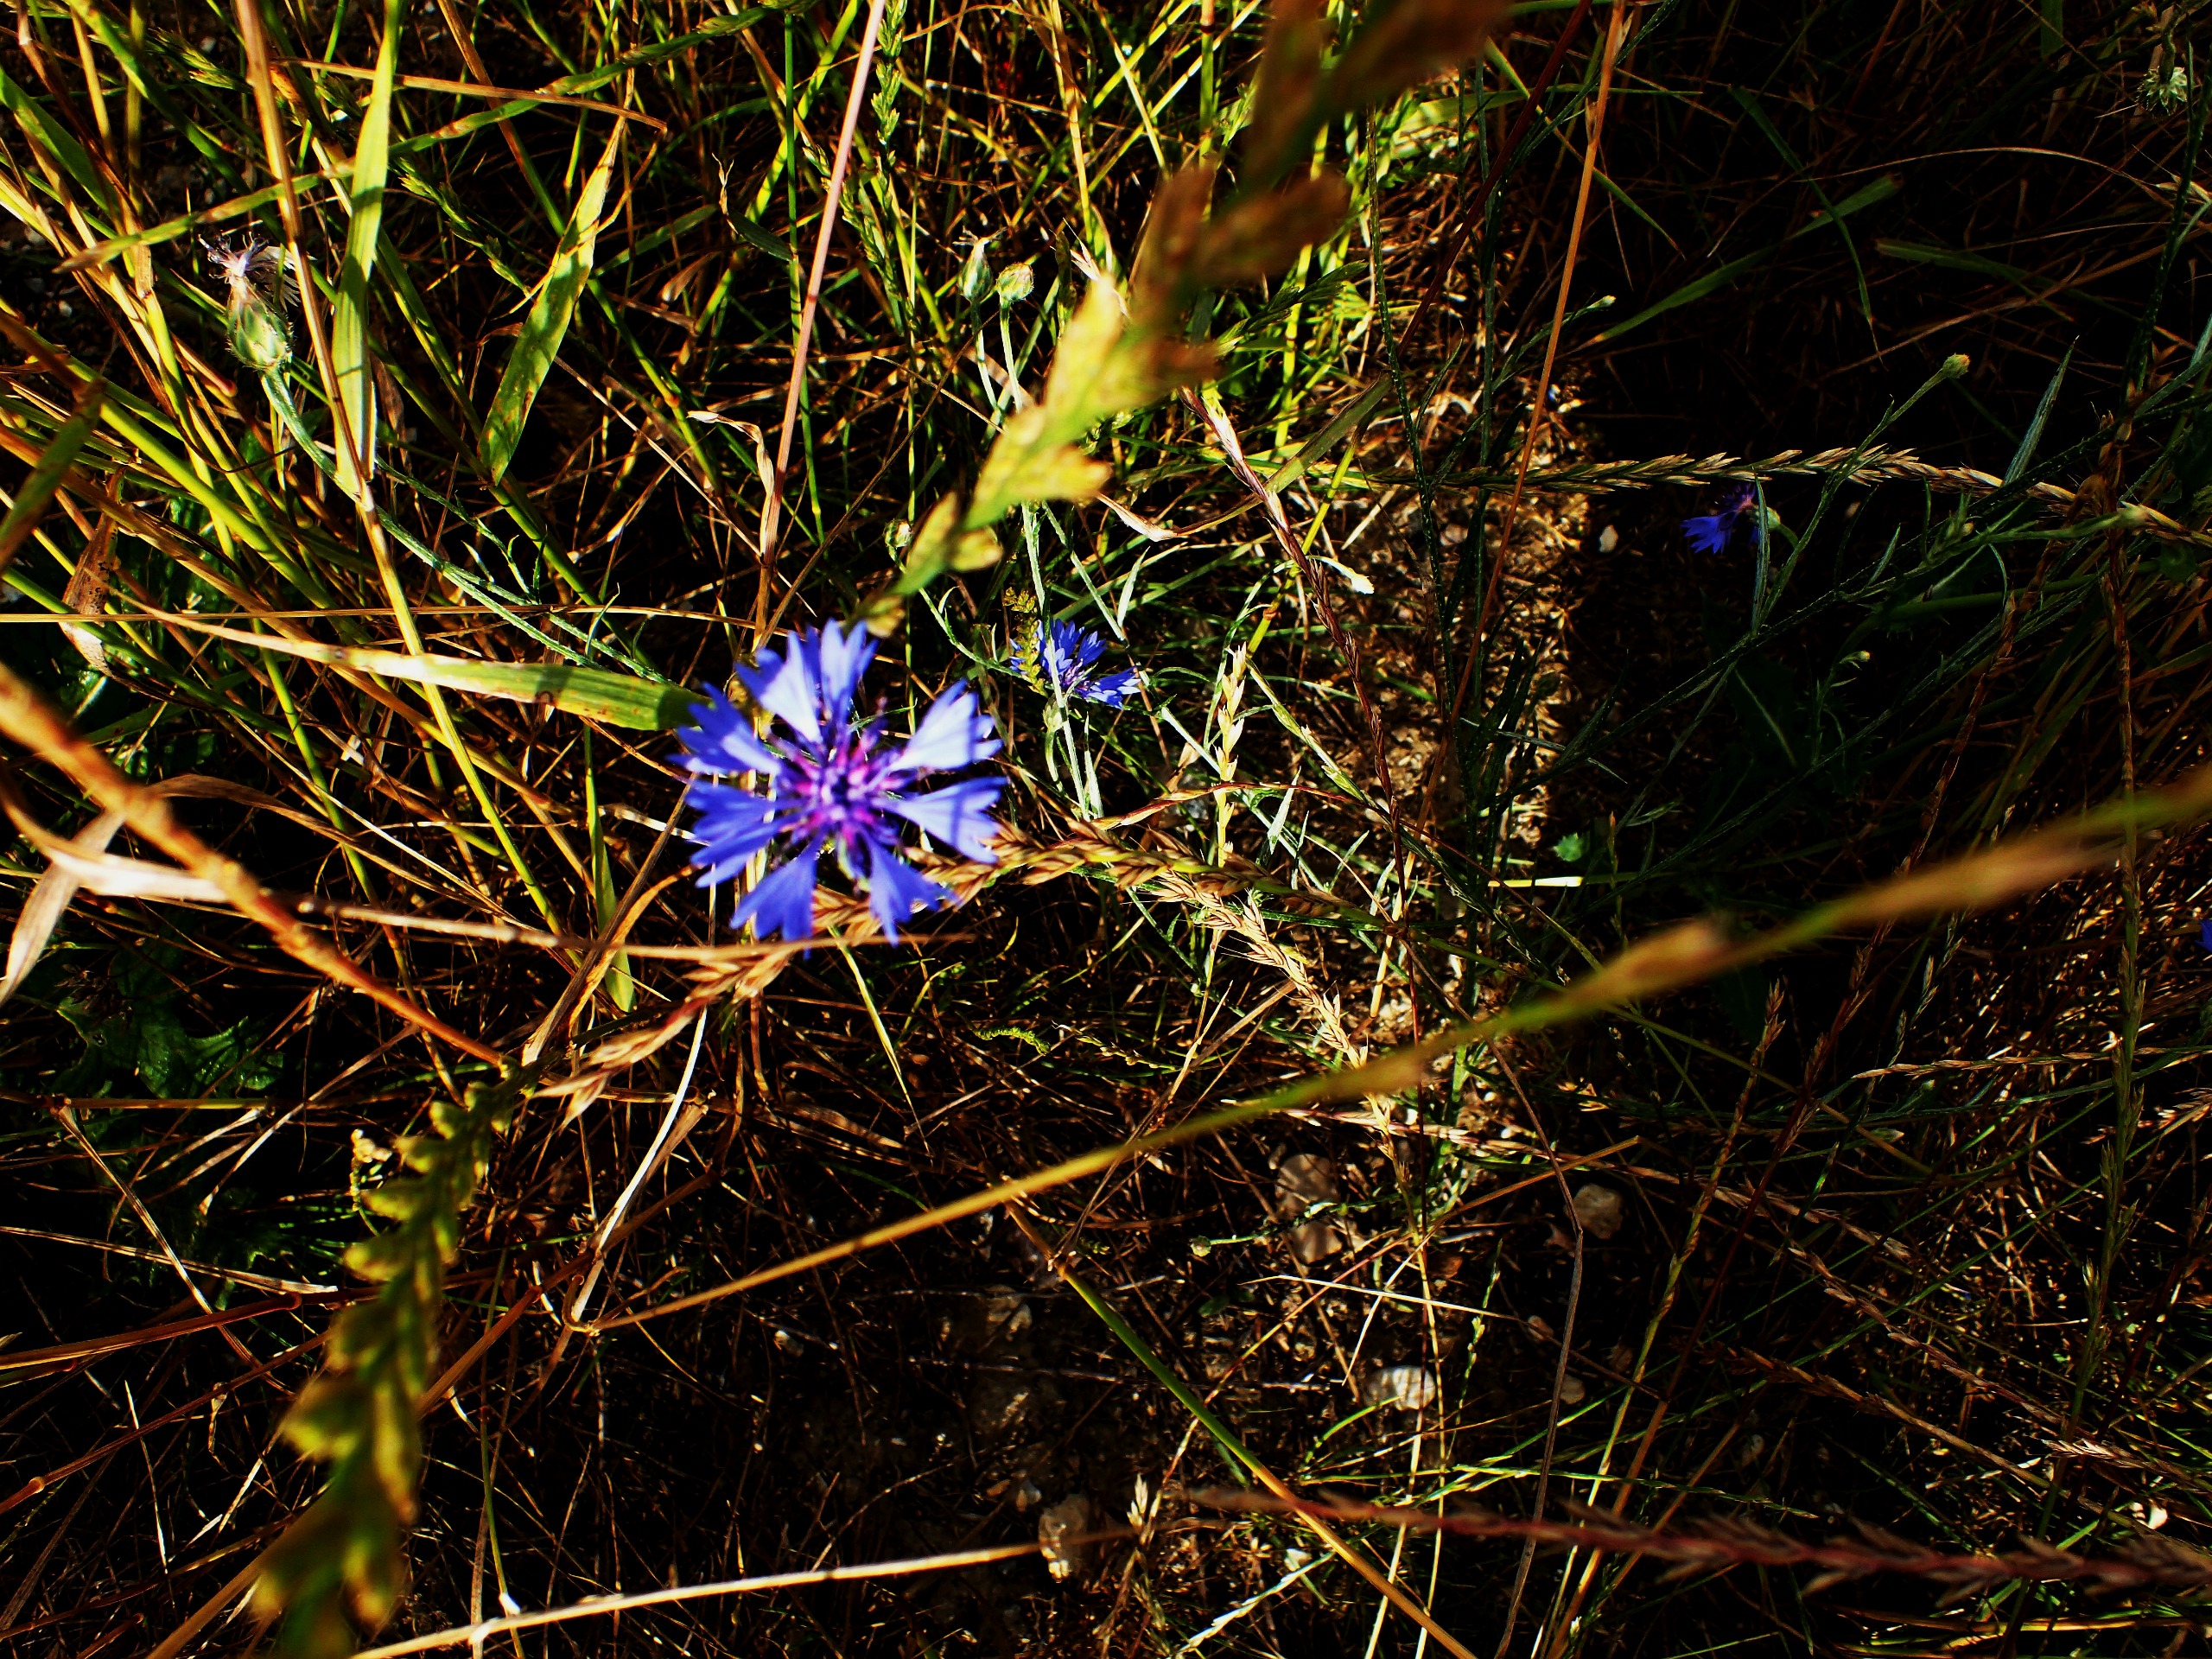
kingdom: Plantae
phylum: Tracheophyta
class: Magnoliopsida
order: Asterales
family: Asteraceae
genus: Centaurea
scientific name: Centaurea cyanus
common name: Kornblomst
